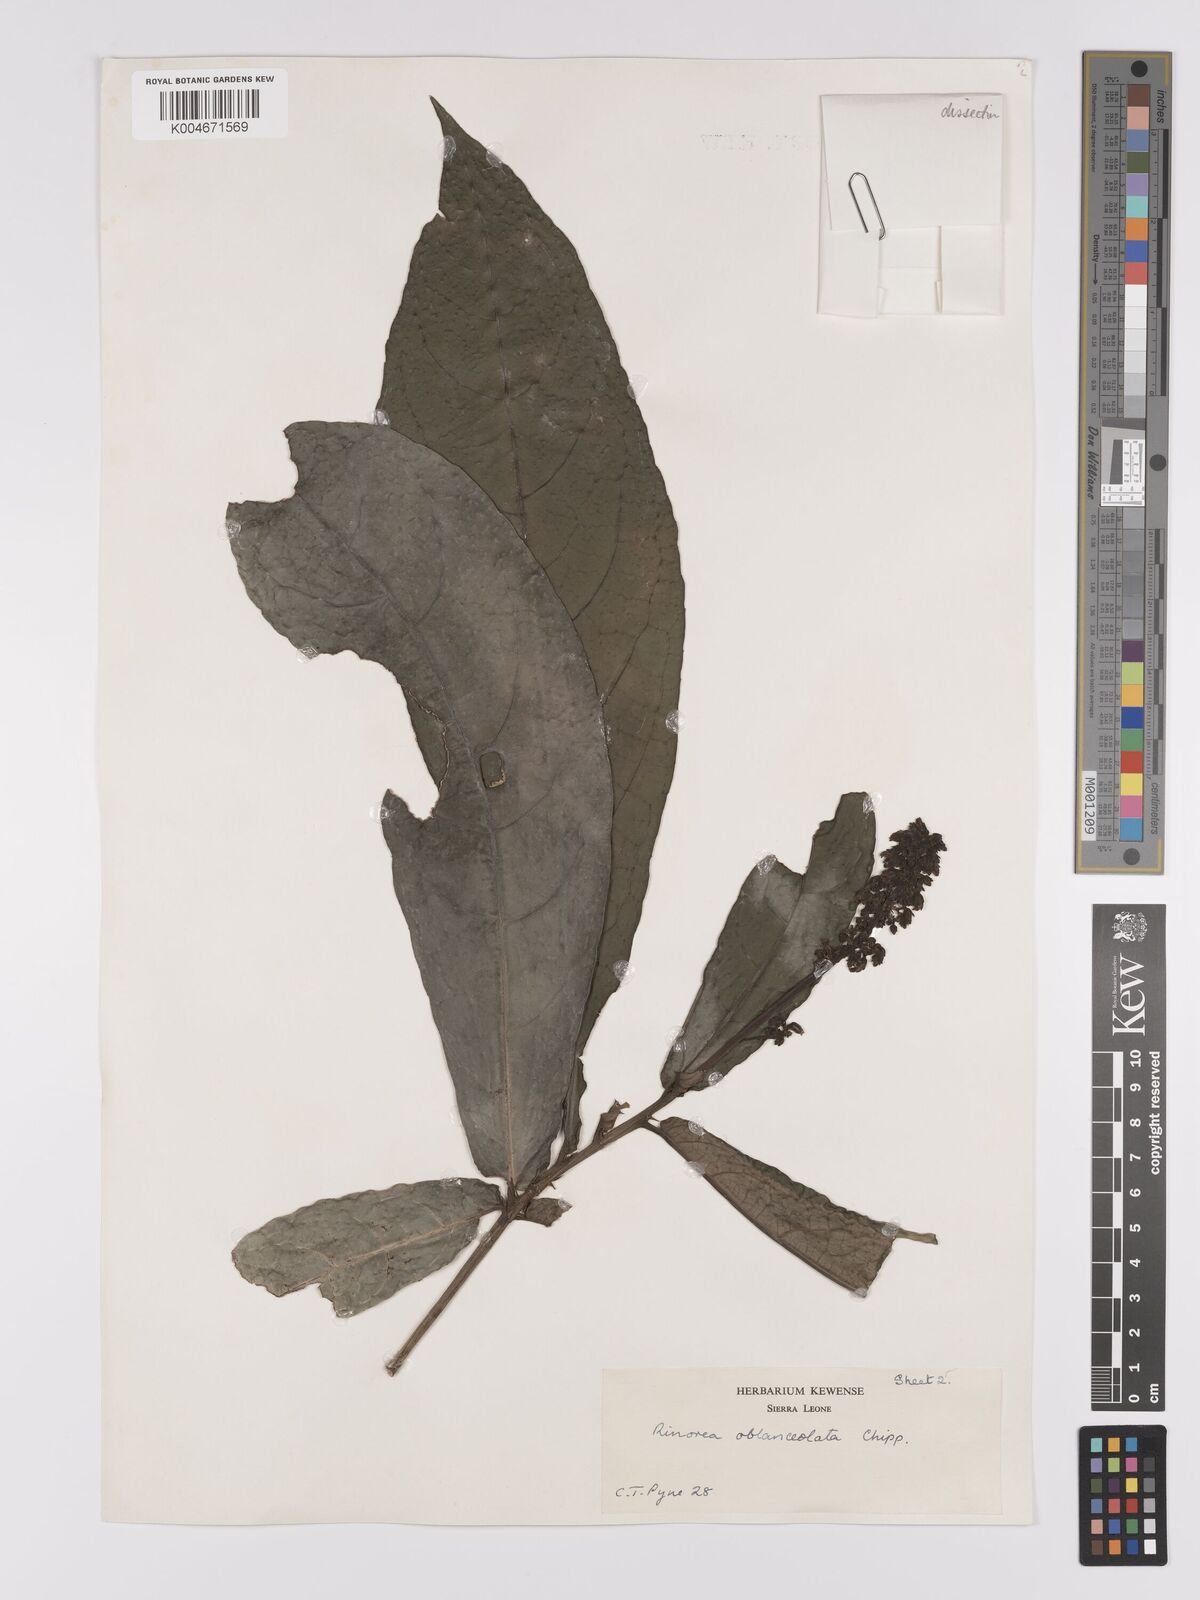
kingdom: Plantae
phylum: Tracheophyta
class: Magnoliopsida
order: Malpighiales
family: Violaceae
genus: Rinorea
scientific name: Rinorea oblanceolata
